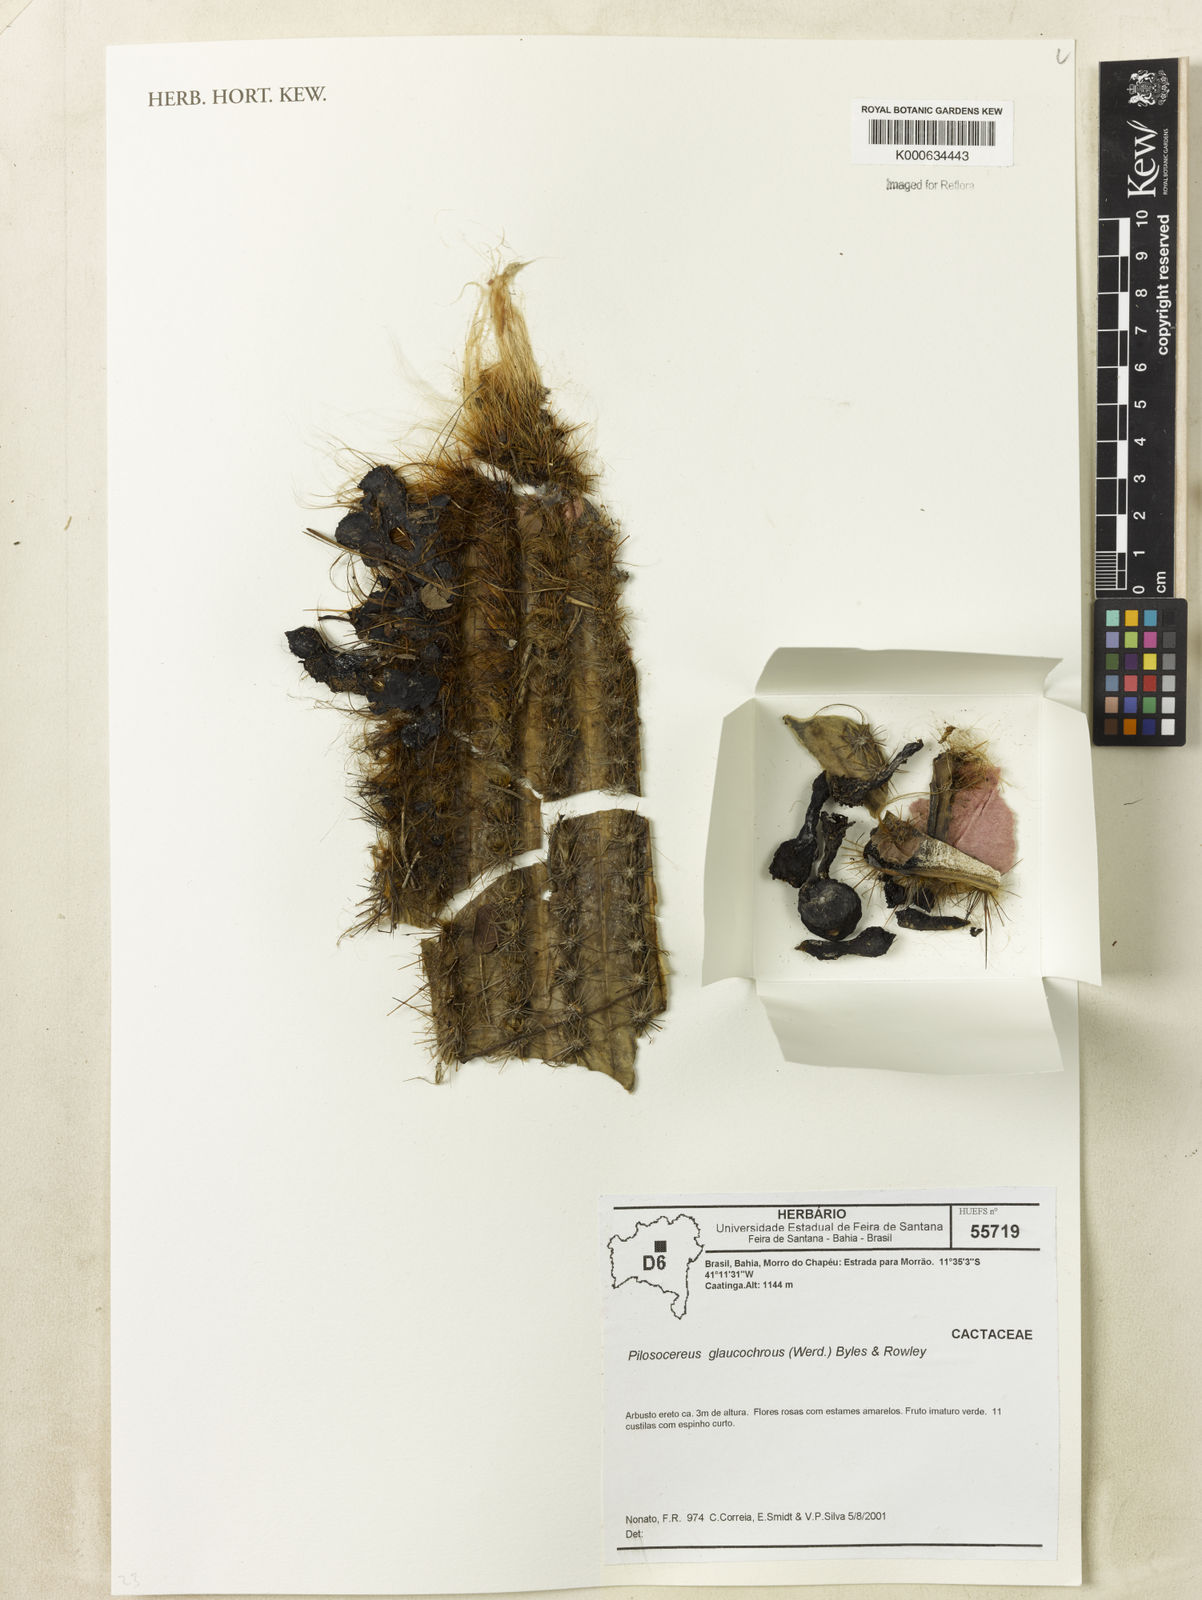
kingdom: Plantae
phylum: Tracheophyta
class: Magnoliopsida
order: Caryophyllales
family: Cactaceae
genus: Pilosocereus
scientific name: Pilosocereus
